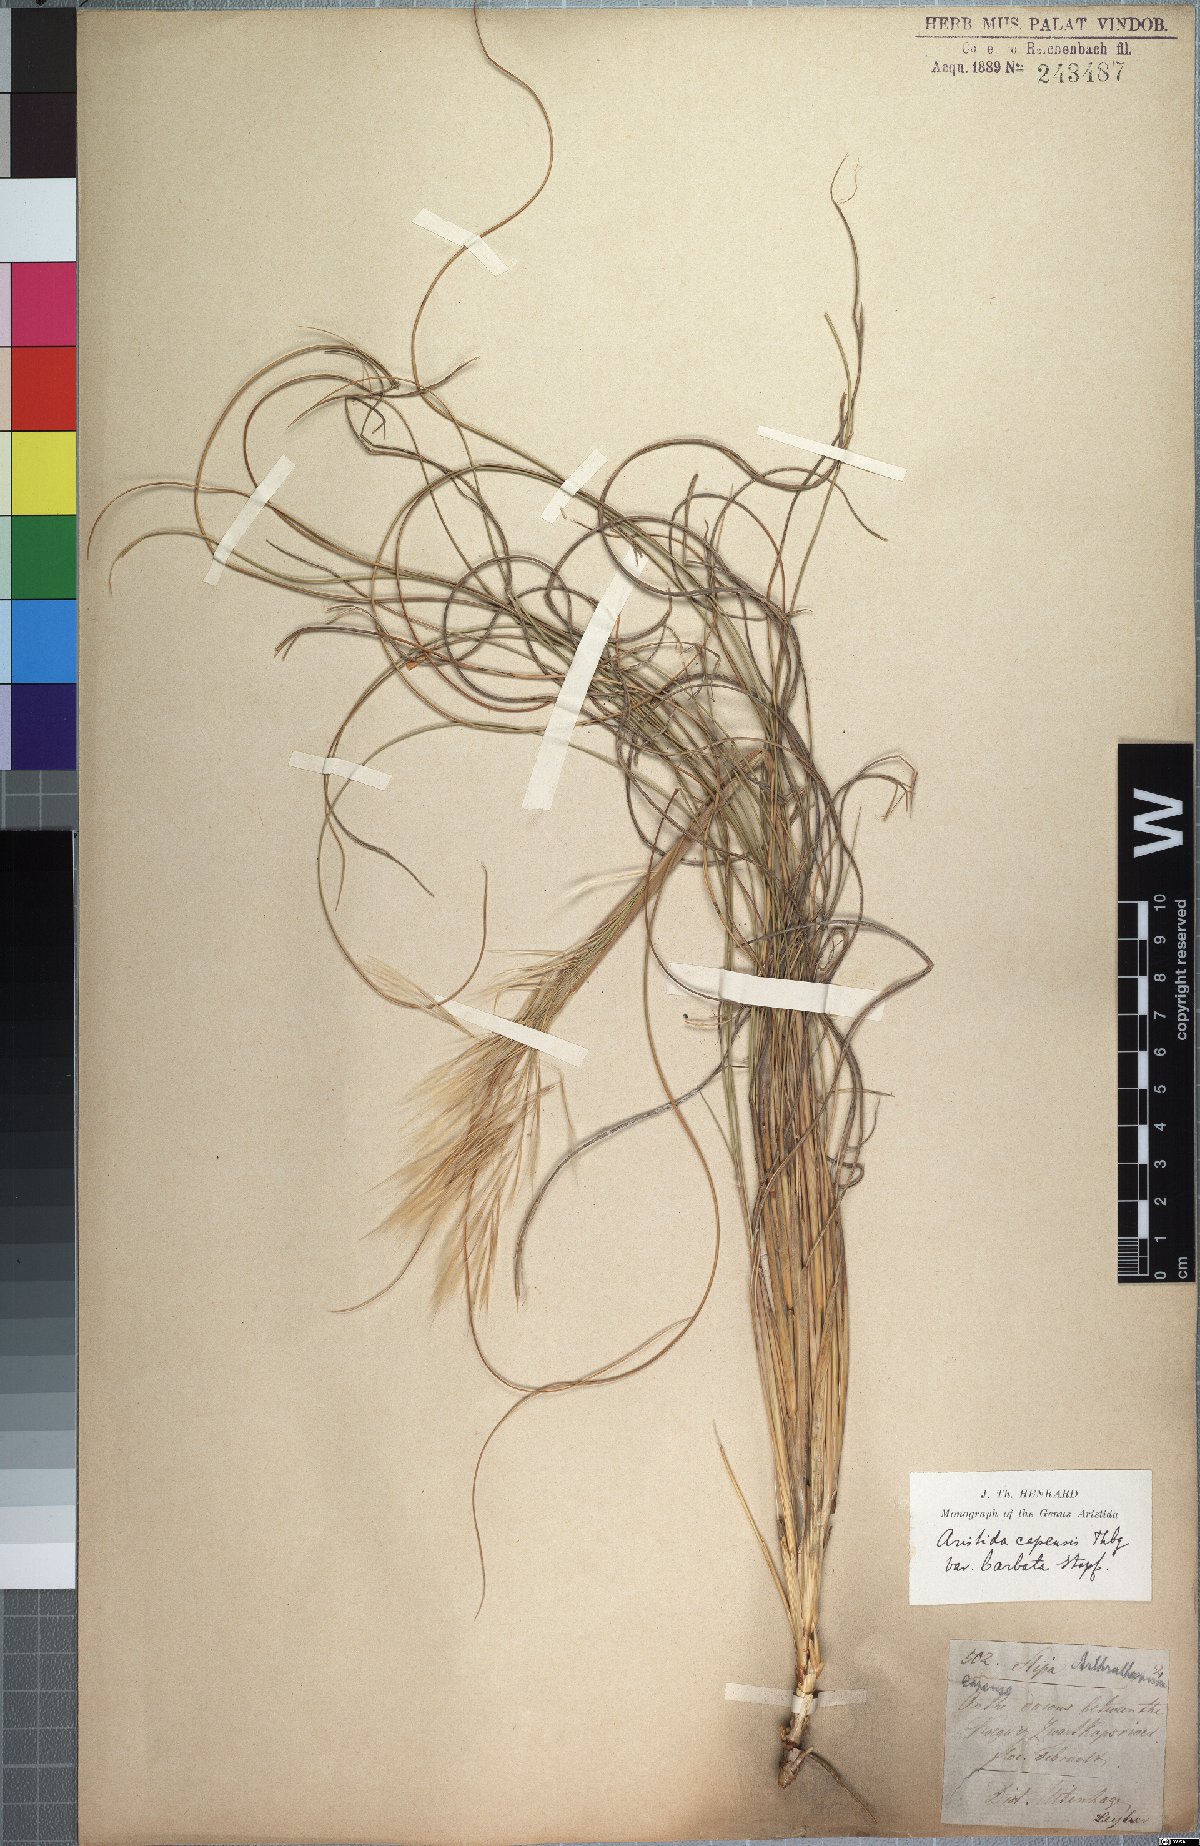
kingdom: Plantae
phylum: Tracheophyta
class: Liliopsida
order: Poales
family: Poaceae
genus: Stipagrostis
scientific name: Stipagrostis zeyheri
